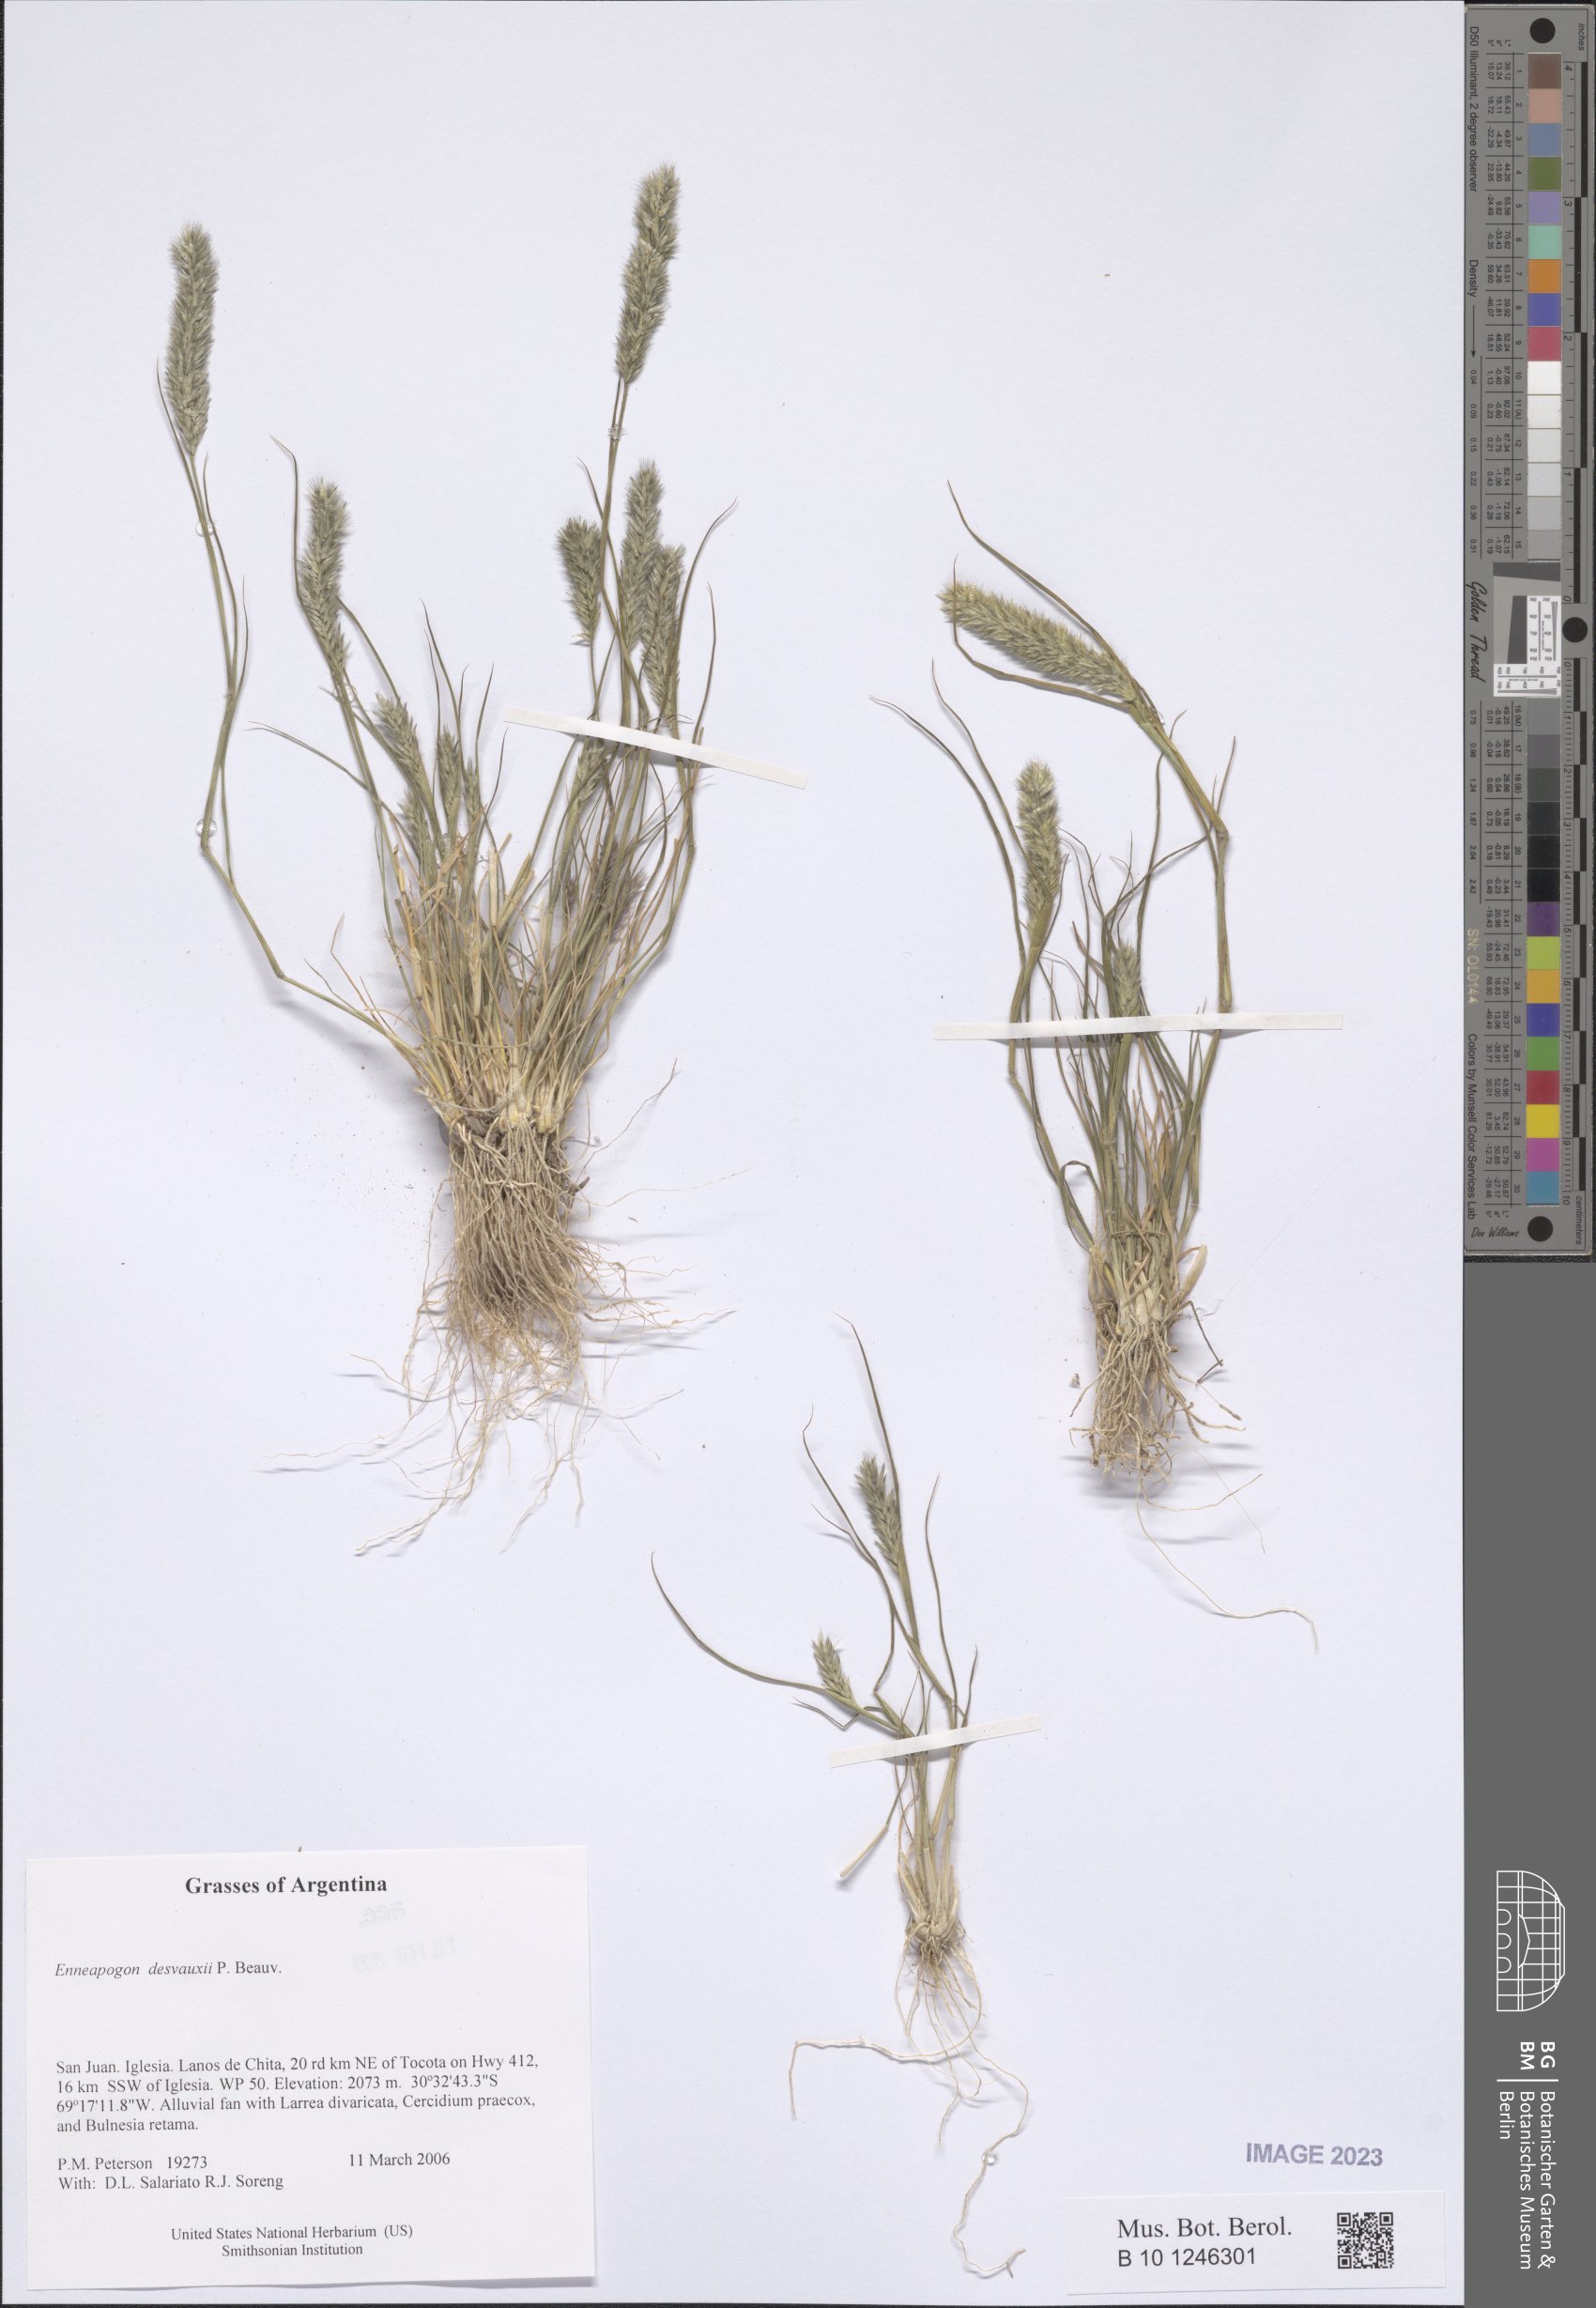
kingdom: Plantae
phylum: Tracheophyta
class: Liliopsida
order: Poales
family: Poaceae
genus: Enneapogon
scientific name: Enneapogon desvauxii
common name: Feather pappus grass
